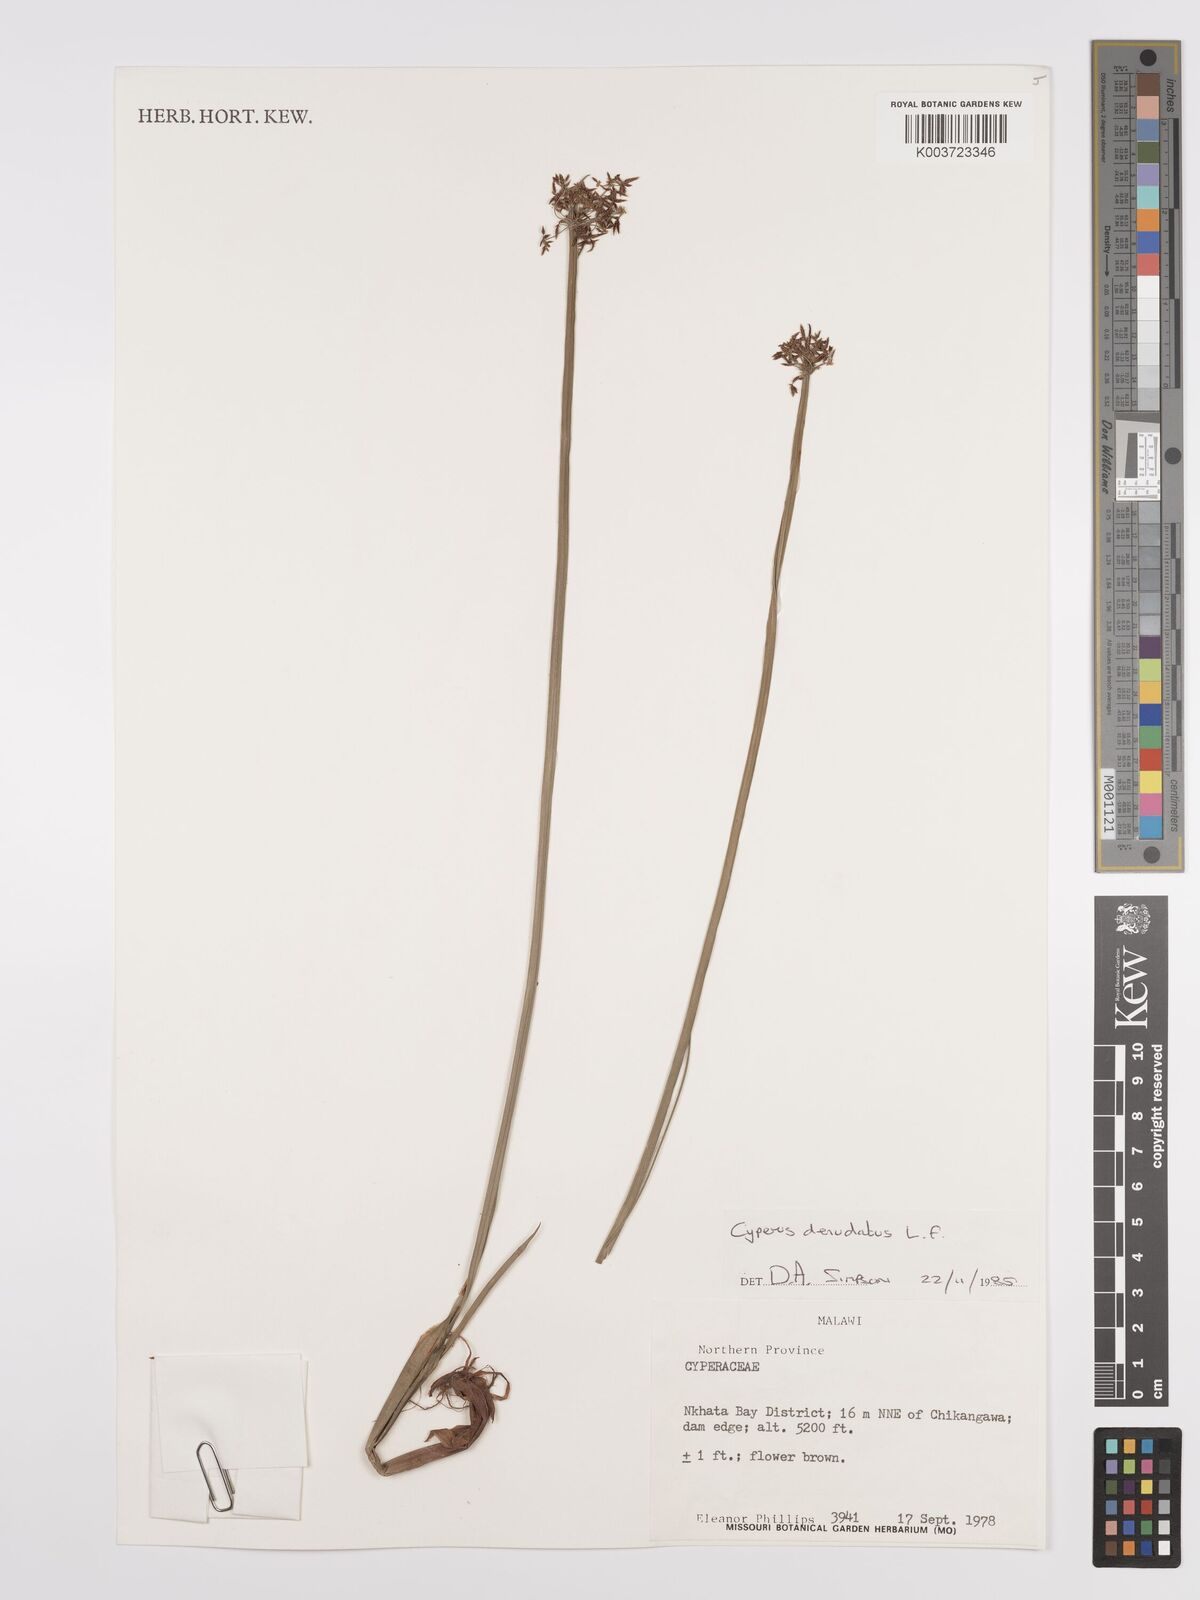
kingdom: Plantae
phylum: Tracheophyta
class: Liliopsida
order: Poales
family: Cyperaceae
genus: Cyperus
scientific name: Cyperus denudatus
